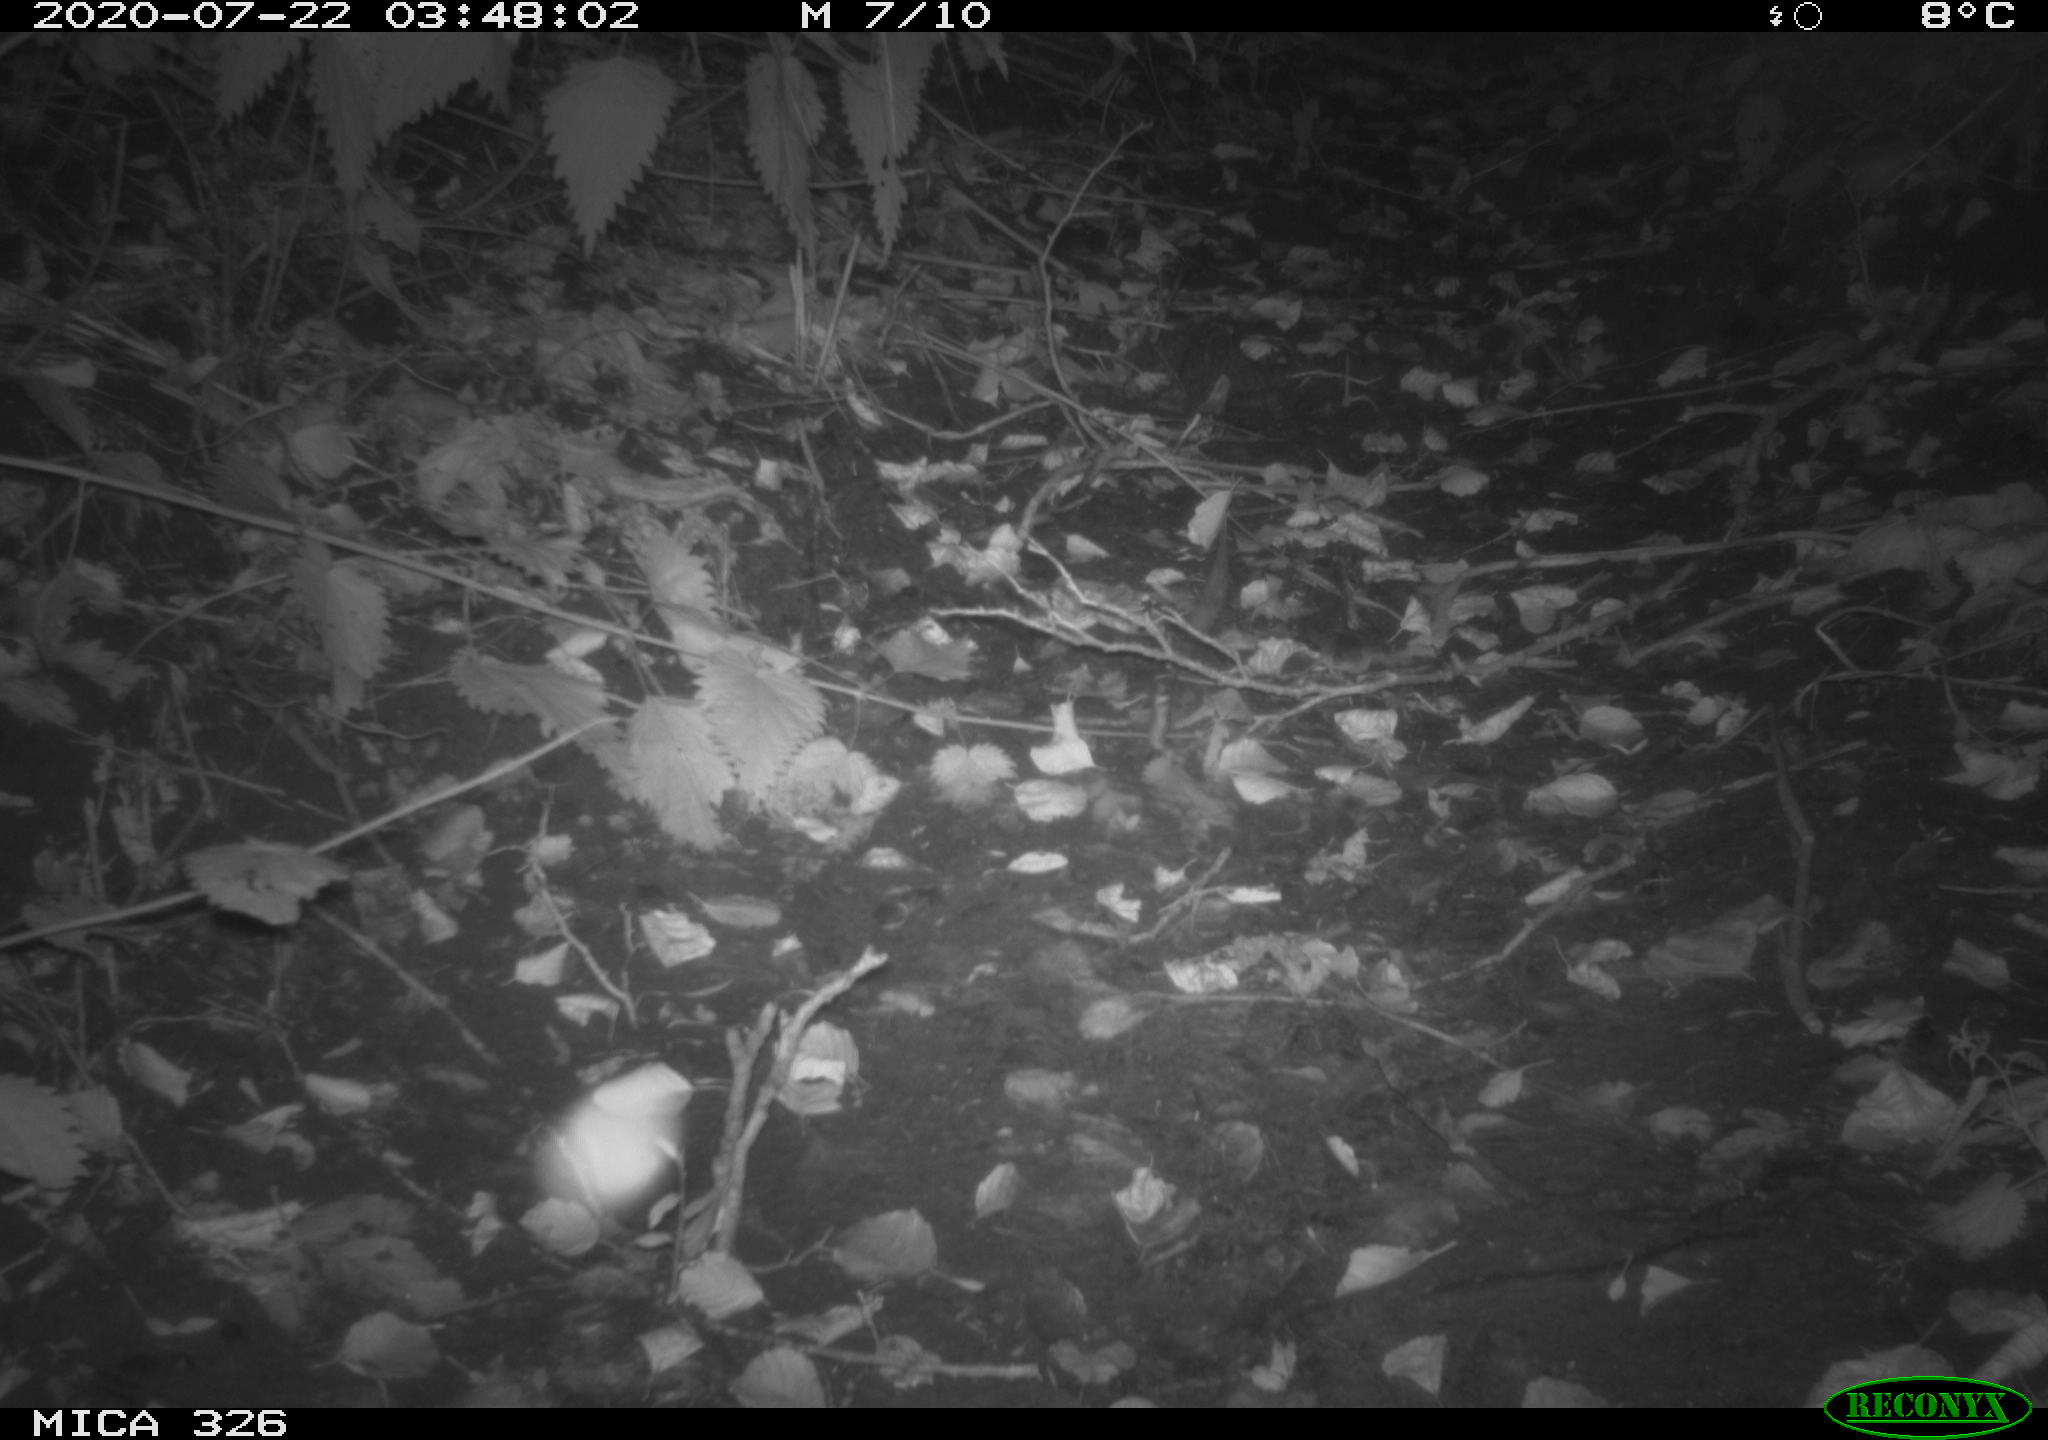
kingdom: Animalia
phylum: Chordata
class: Mammalia
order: Rodentia
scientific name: Rodentia
